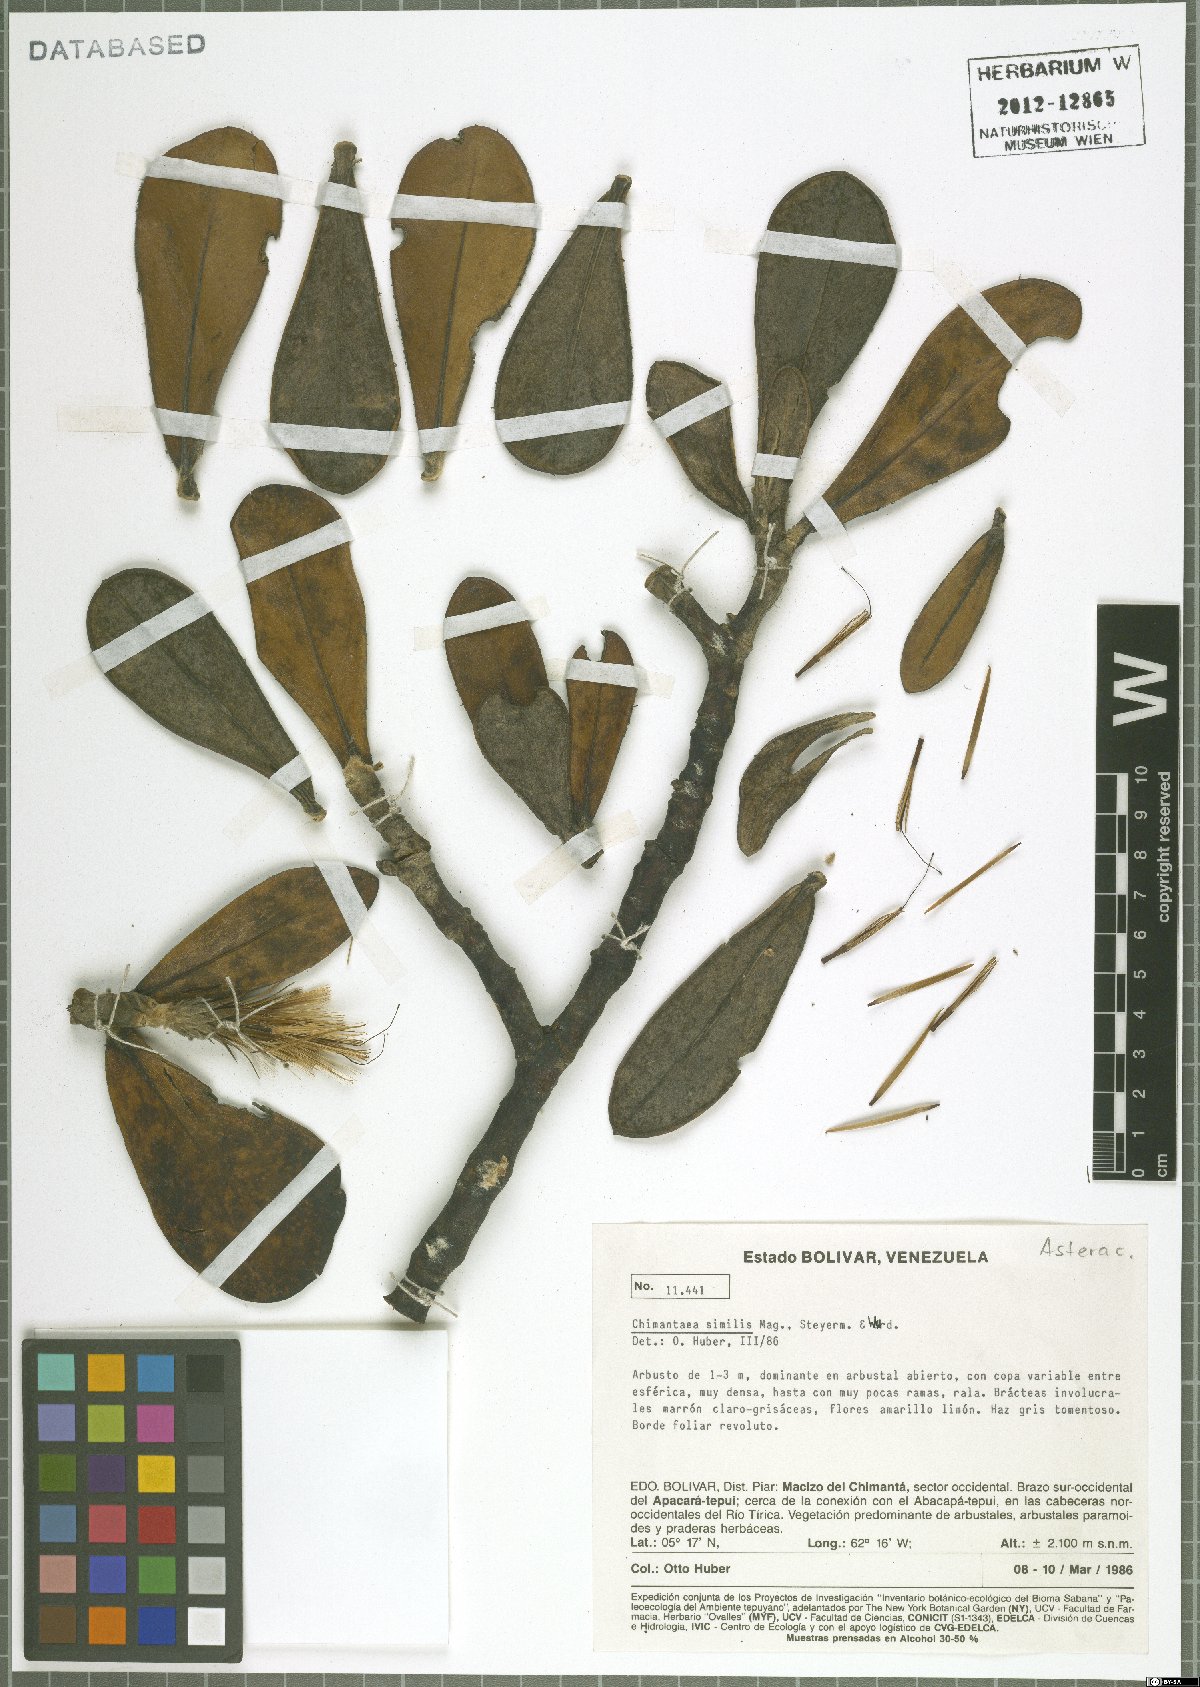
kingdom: Plantae
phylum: Tracheophyta
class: Magnoliopsida
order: Asterales
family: Asteraceae
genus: Chimantaea
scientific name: Chimantaea cinerea
